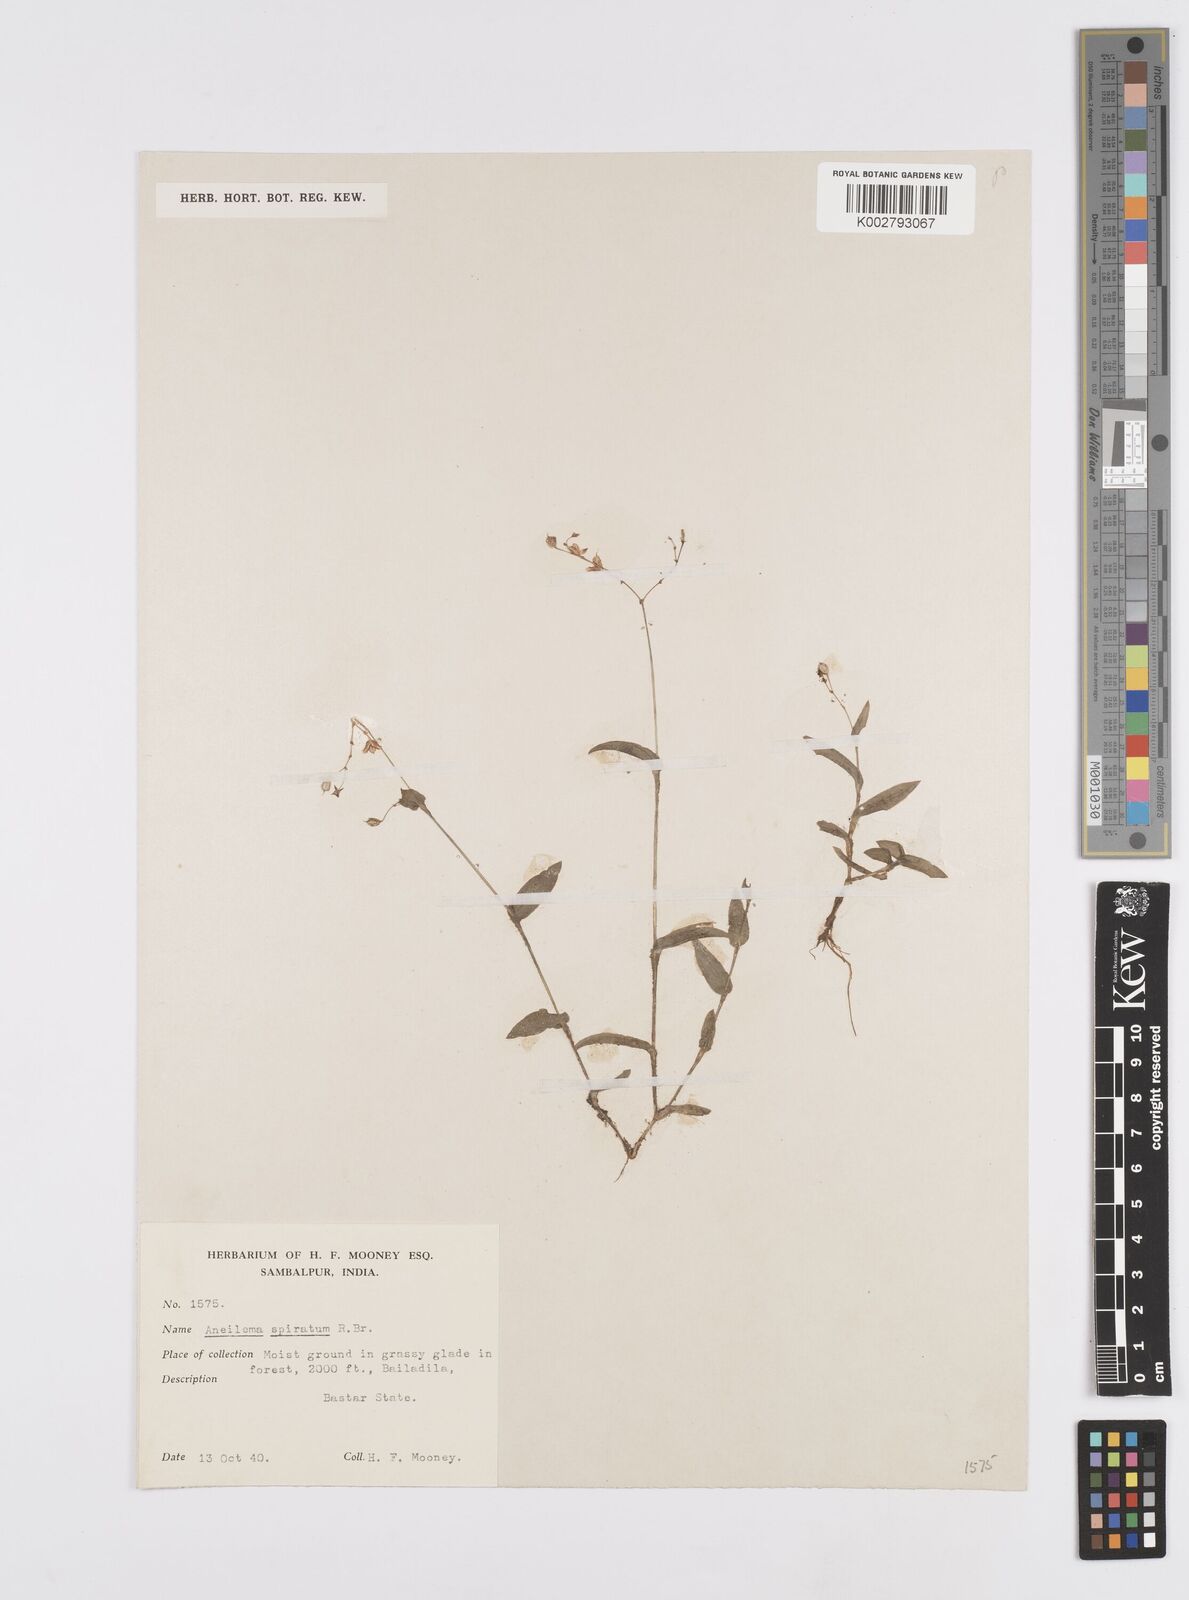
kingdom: Plantae
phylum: Tracheophyta
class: Liliopsida
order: Commelinales
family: Commelinaceae
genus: Murdannia
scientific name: Murdannia spirata
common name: Asiatic dewflower
